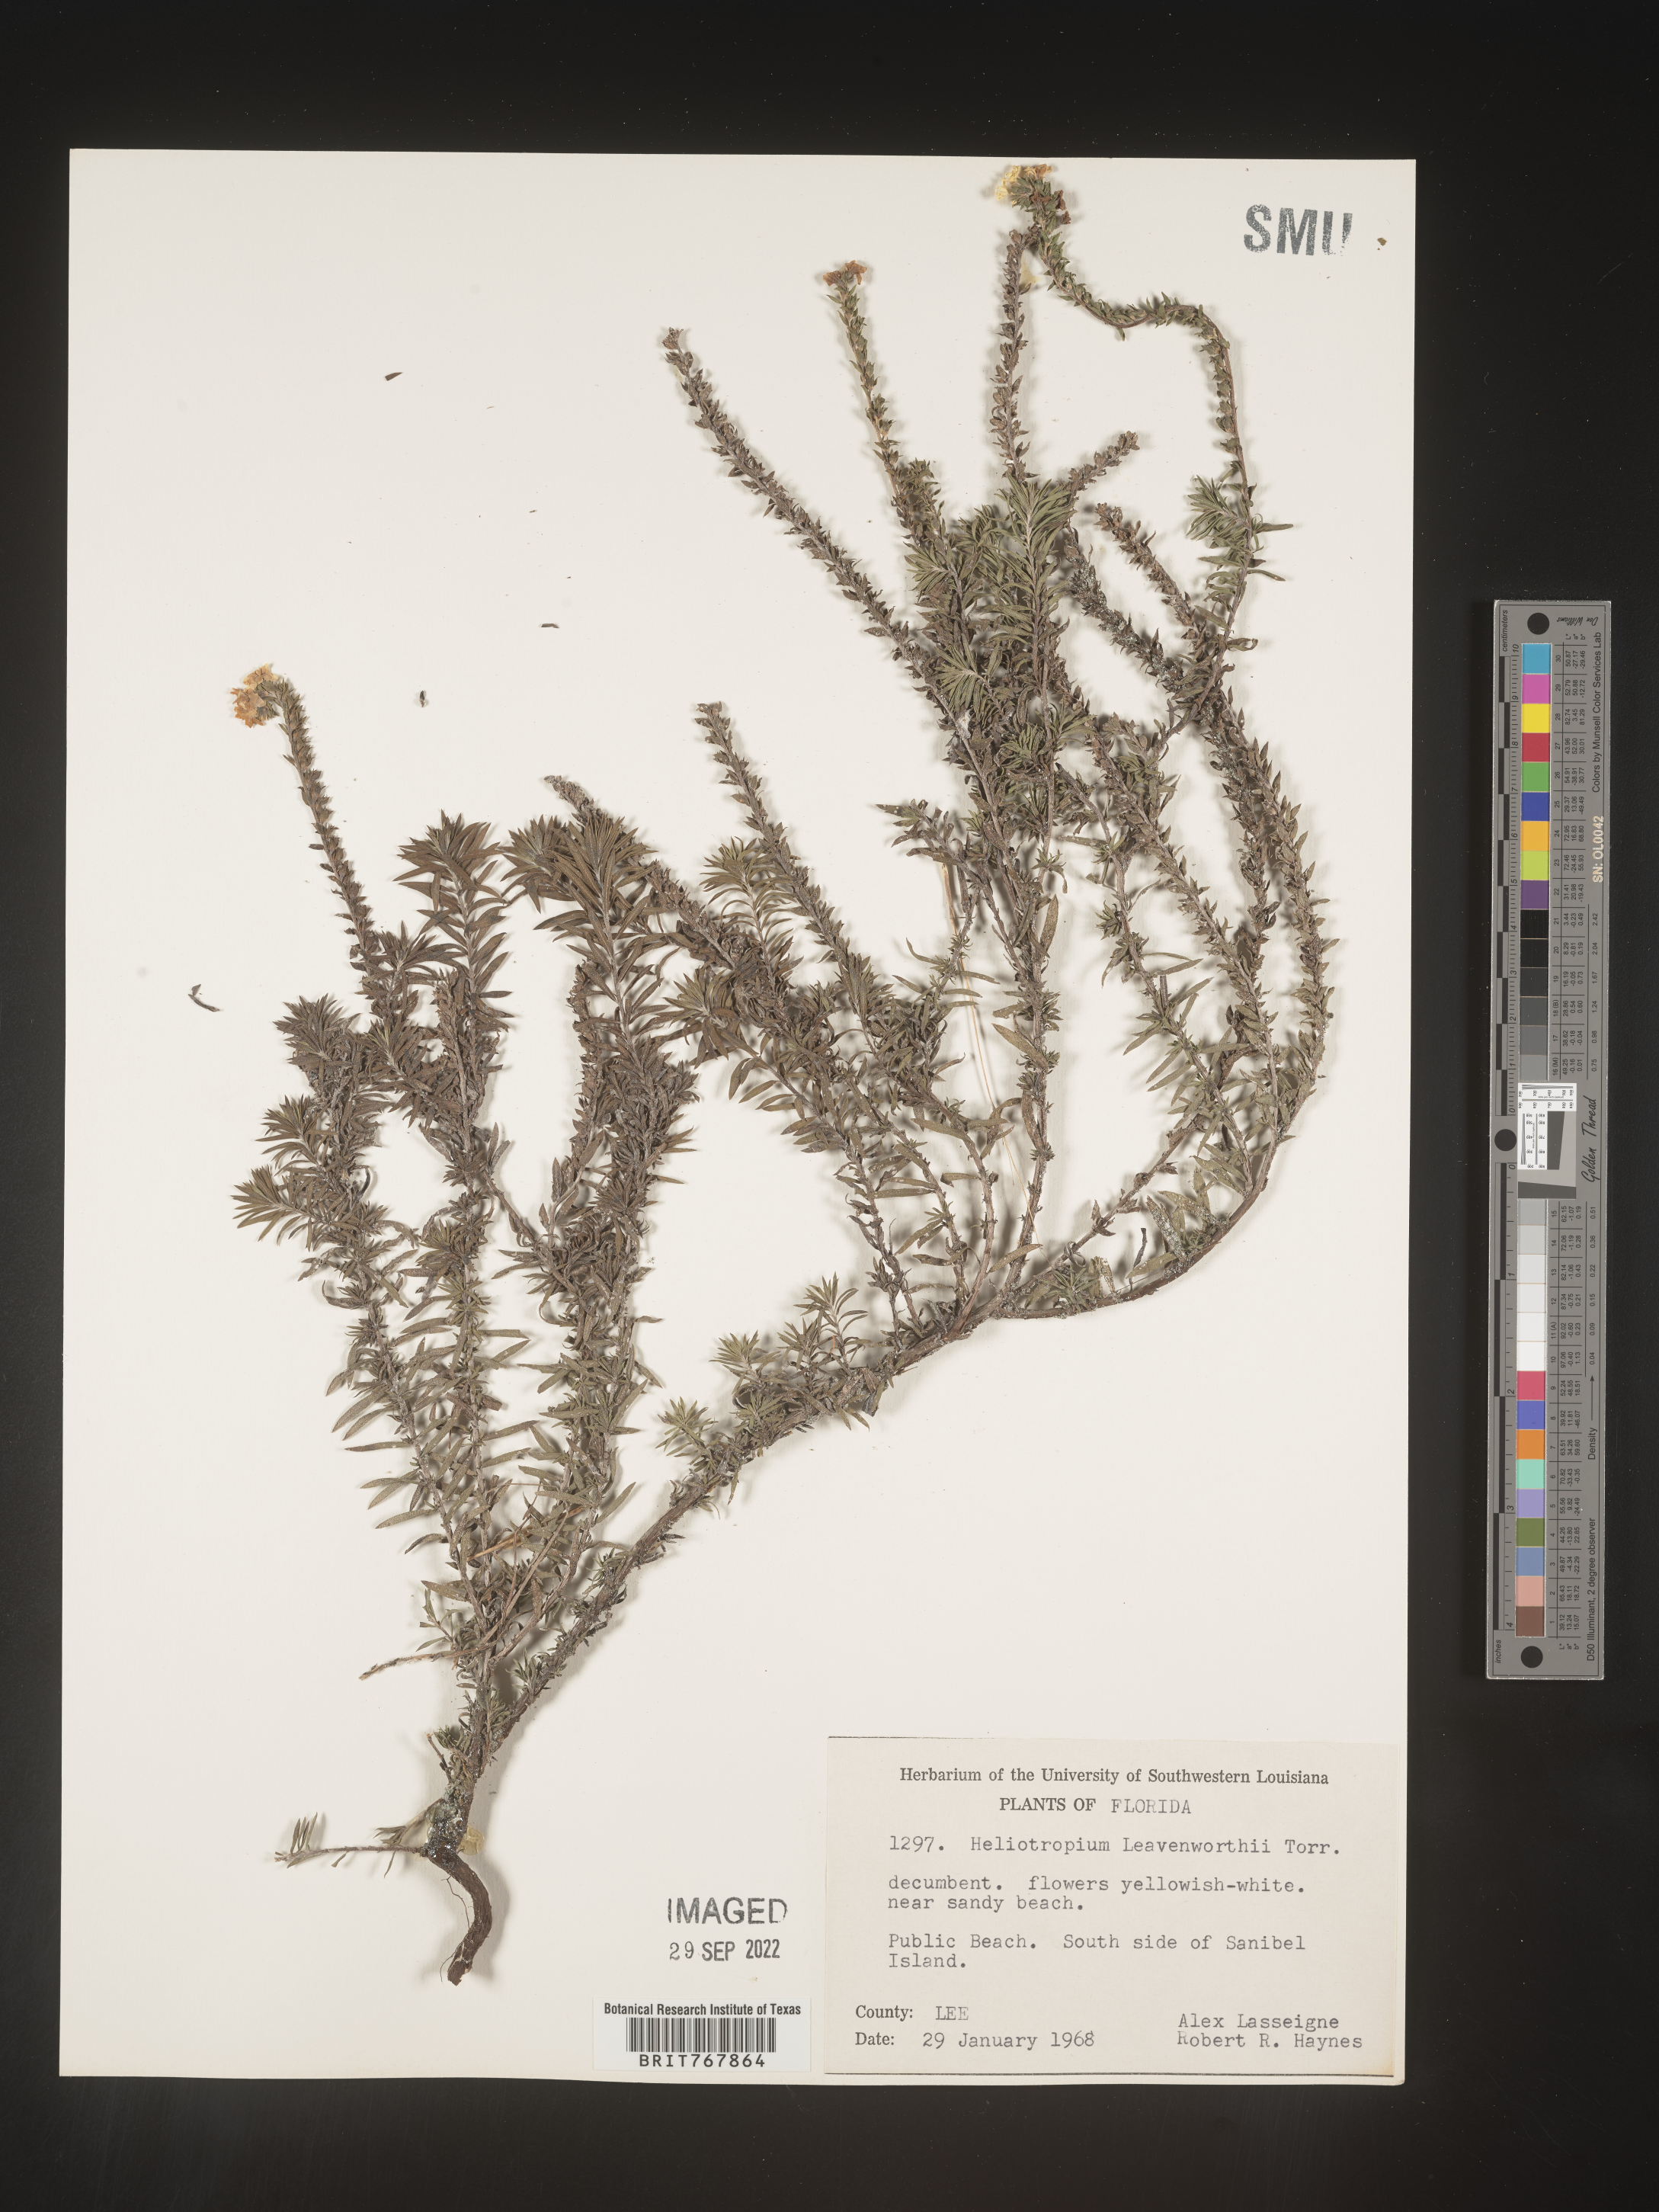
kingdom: Plantae
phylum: Tracheophyta
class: Magnoliopsida
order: Boraginales
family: Heliotropiaceae
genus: Heliotropium
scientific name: Heliotropium leavenworthii
